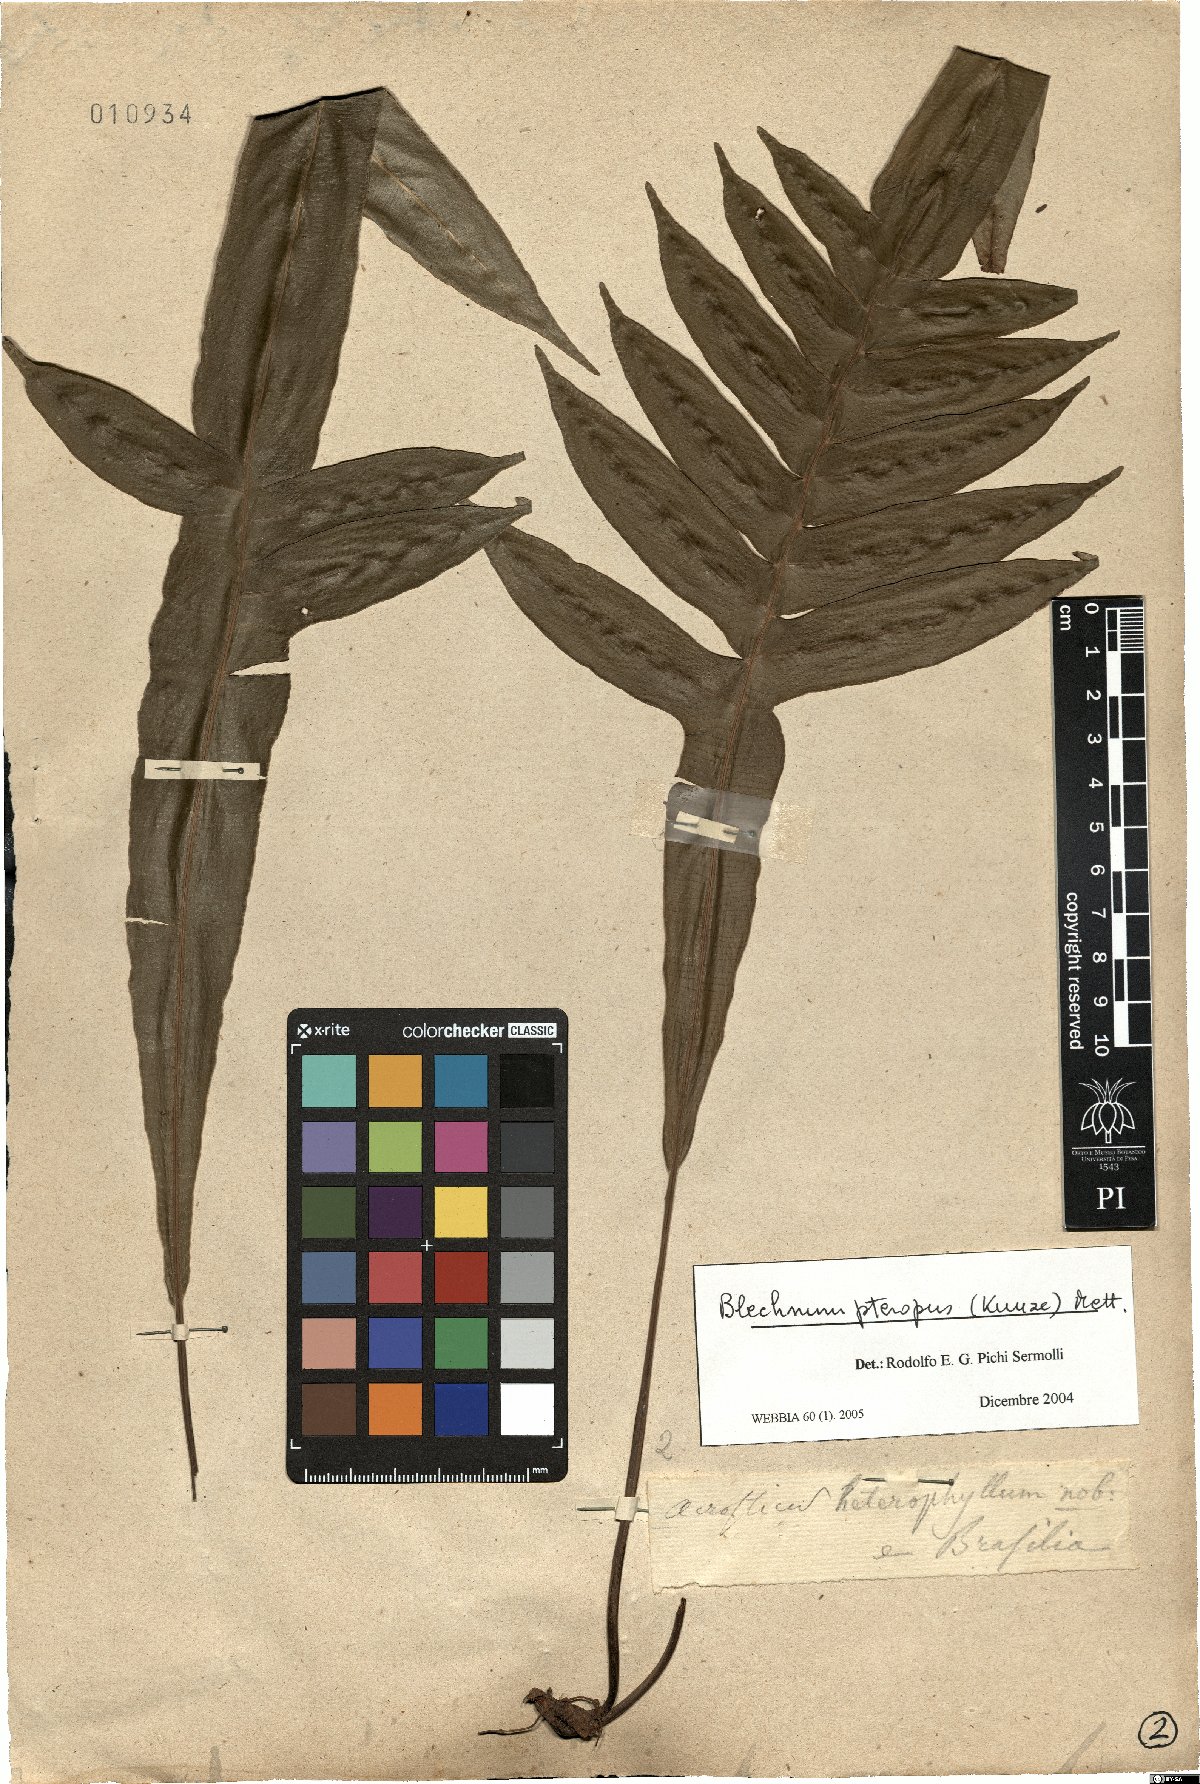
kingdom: Plantae
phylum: Tracheophyta
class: Polypodiopsida
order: Polypodiales
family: Blechnaceae
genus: Lomaridium
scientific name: Lomaridium pteropus
